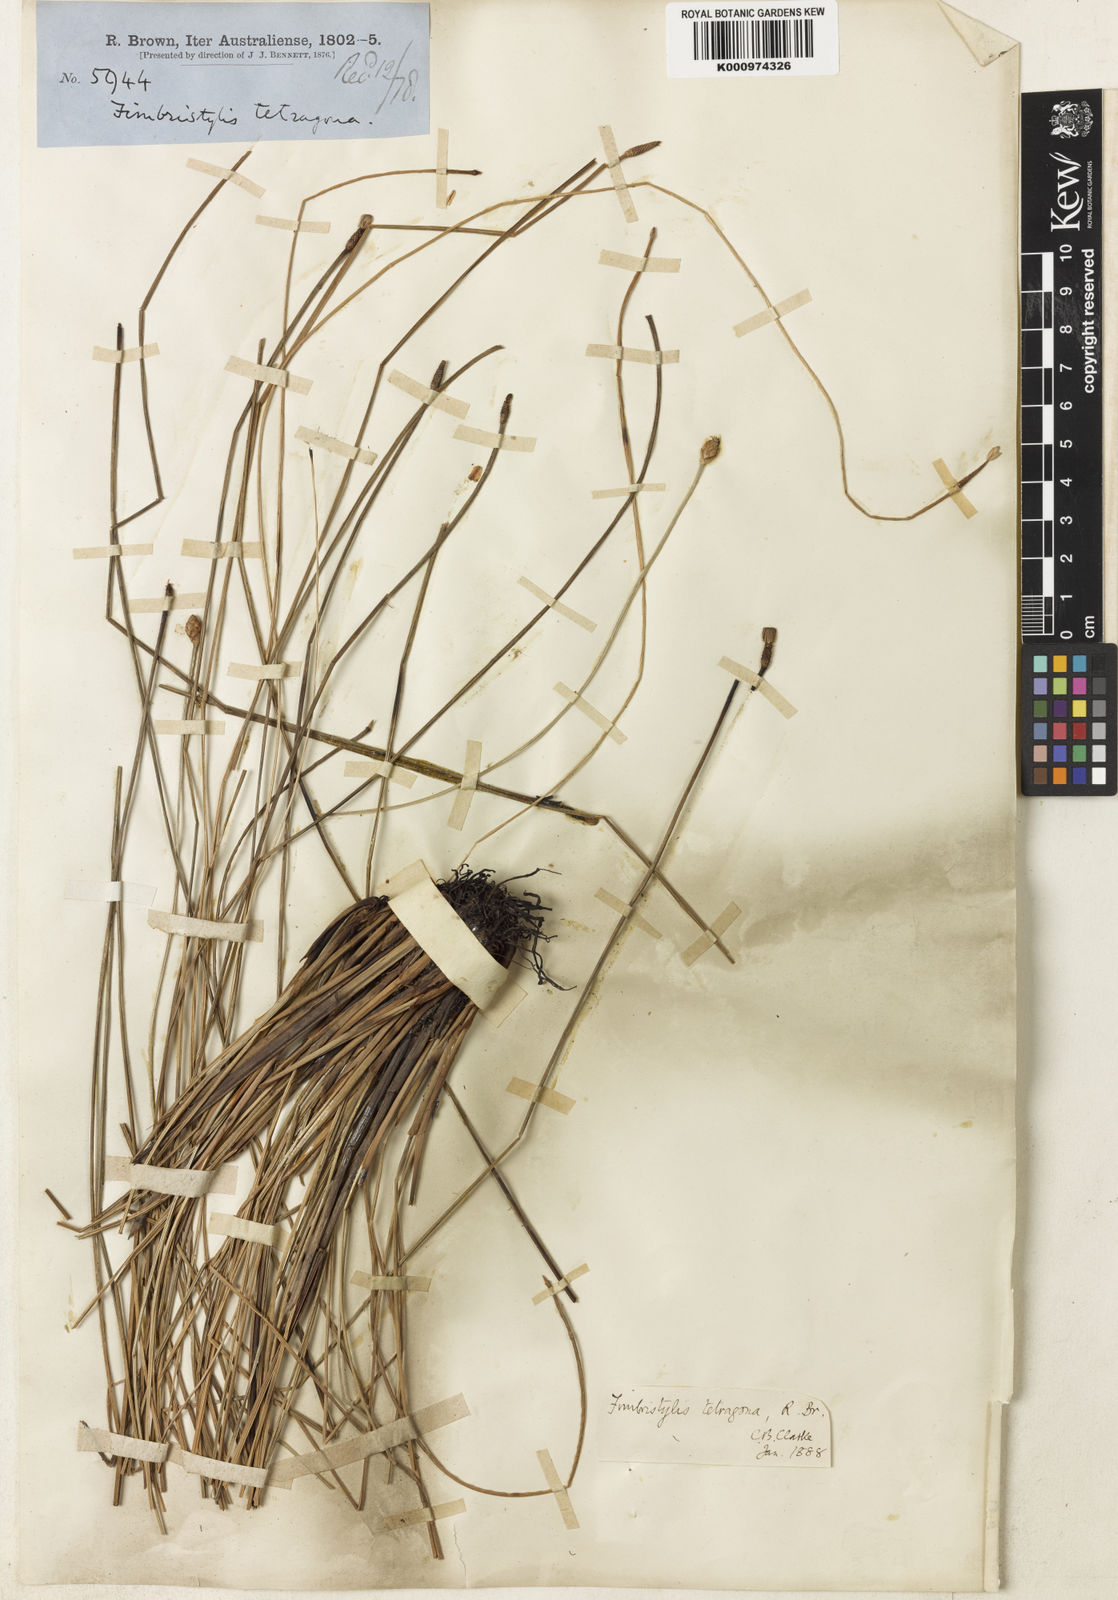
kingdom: Plantae
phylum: Tracheophyta
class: Liliopsida
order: Poales
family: Cyperaceae
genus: Fimbristylis
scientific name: Fimbristylis tetragona
